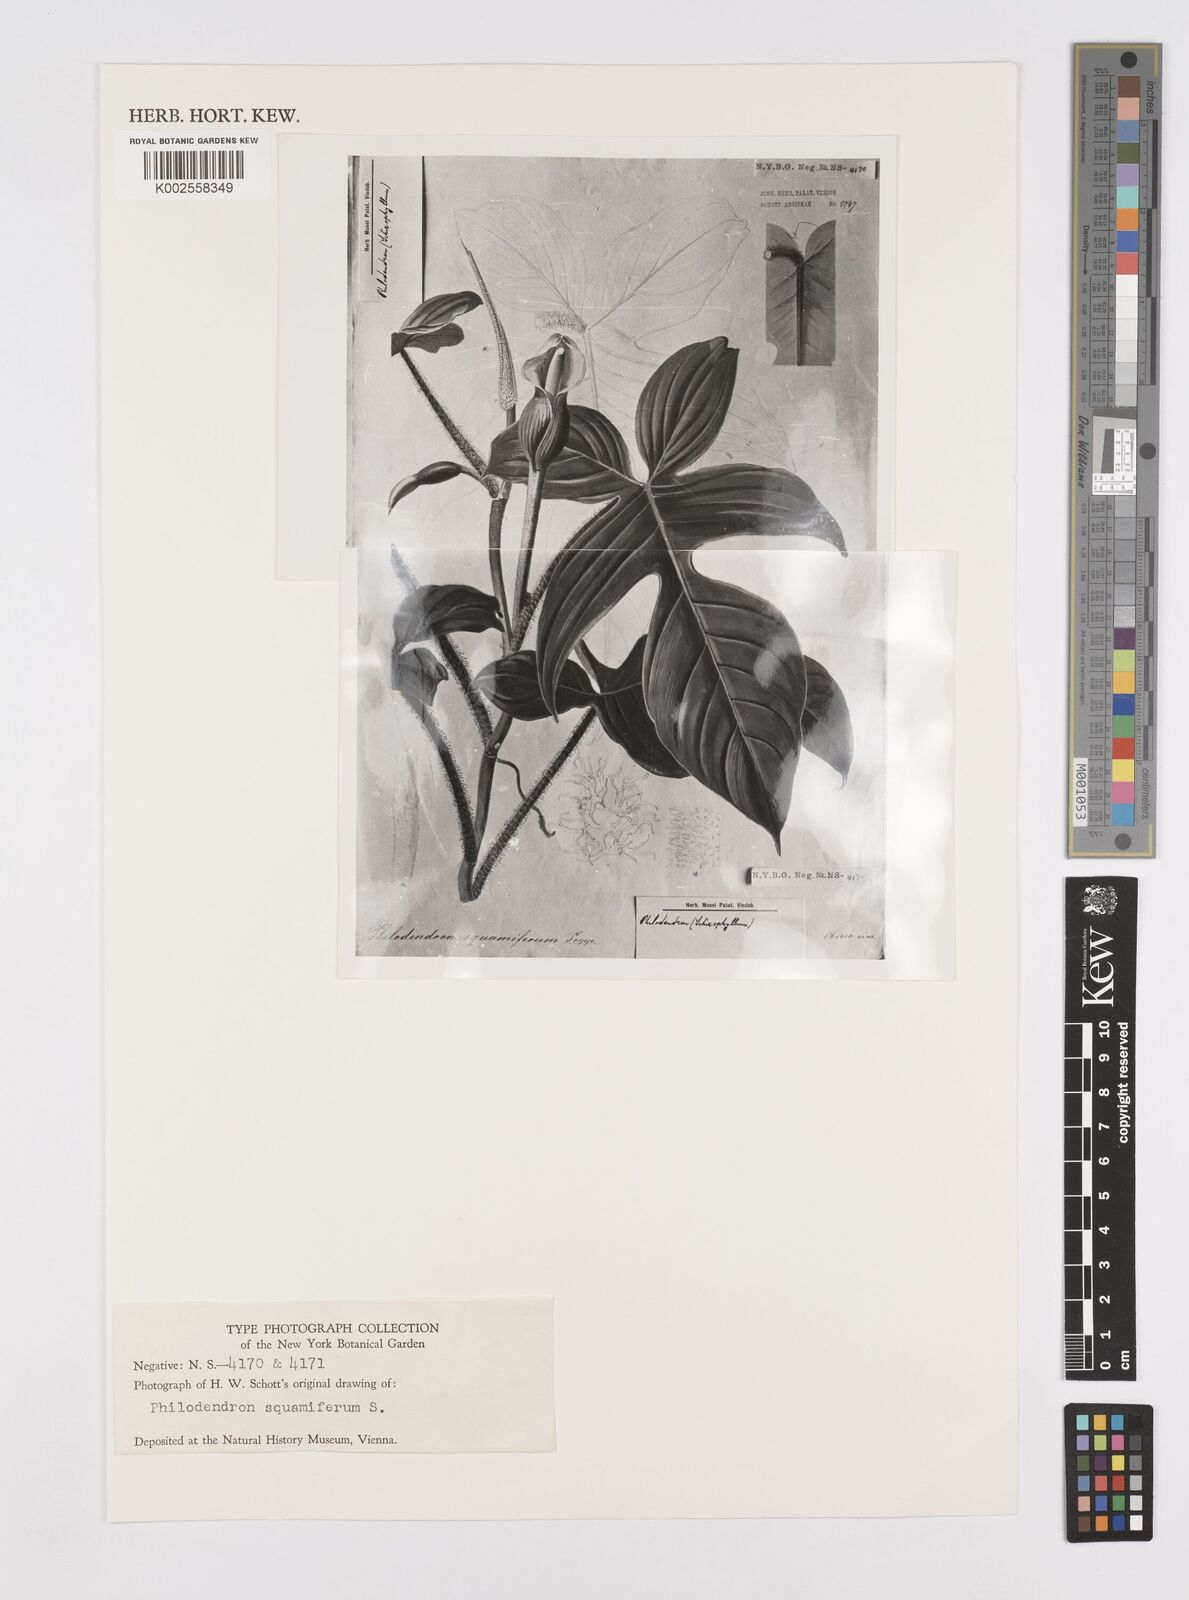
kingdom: Plantae
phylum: Tracheophyta
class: Liliopsida
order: Alismatales
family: Araceae
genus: Philodendron
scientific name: Philodendron squamiferum
